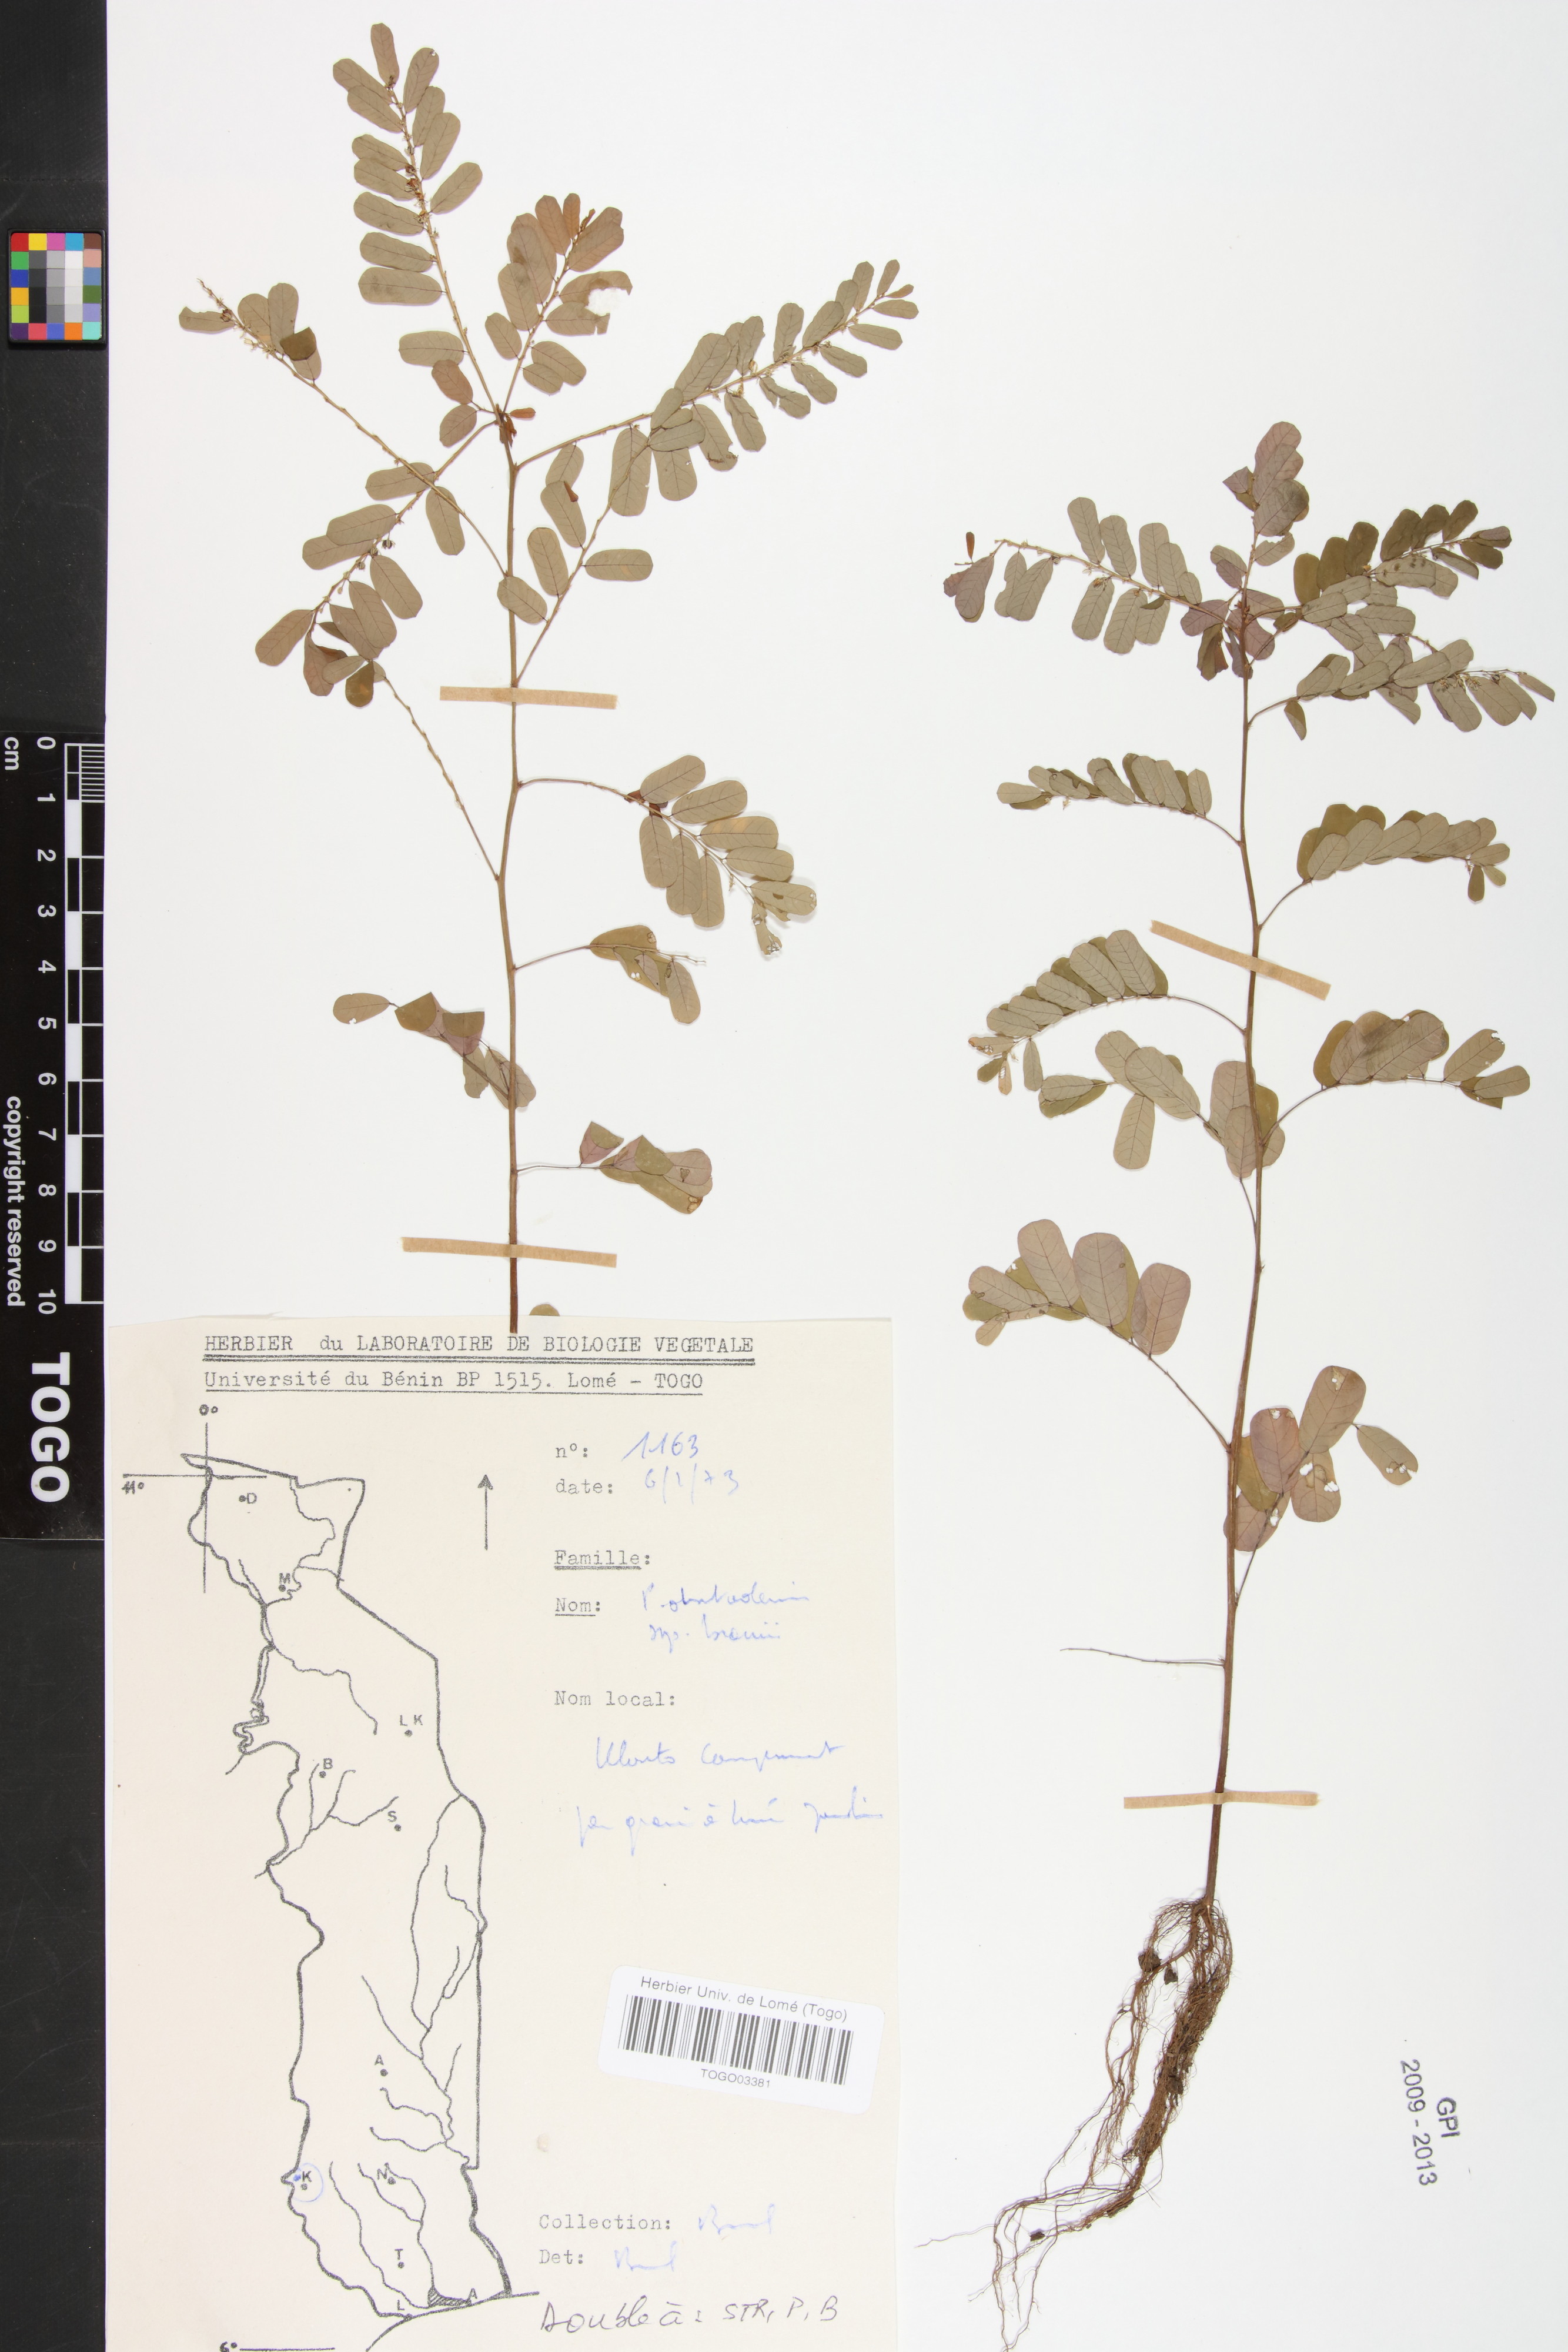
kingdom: Plantae
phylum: Tracheophyta
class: Magnoliopsida
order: Malpighiales
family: Phyllanthaceae
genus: Phyllanthus
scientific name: Phyllanthus odontadenius
